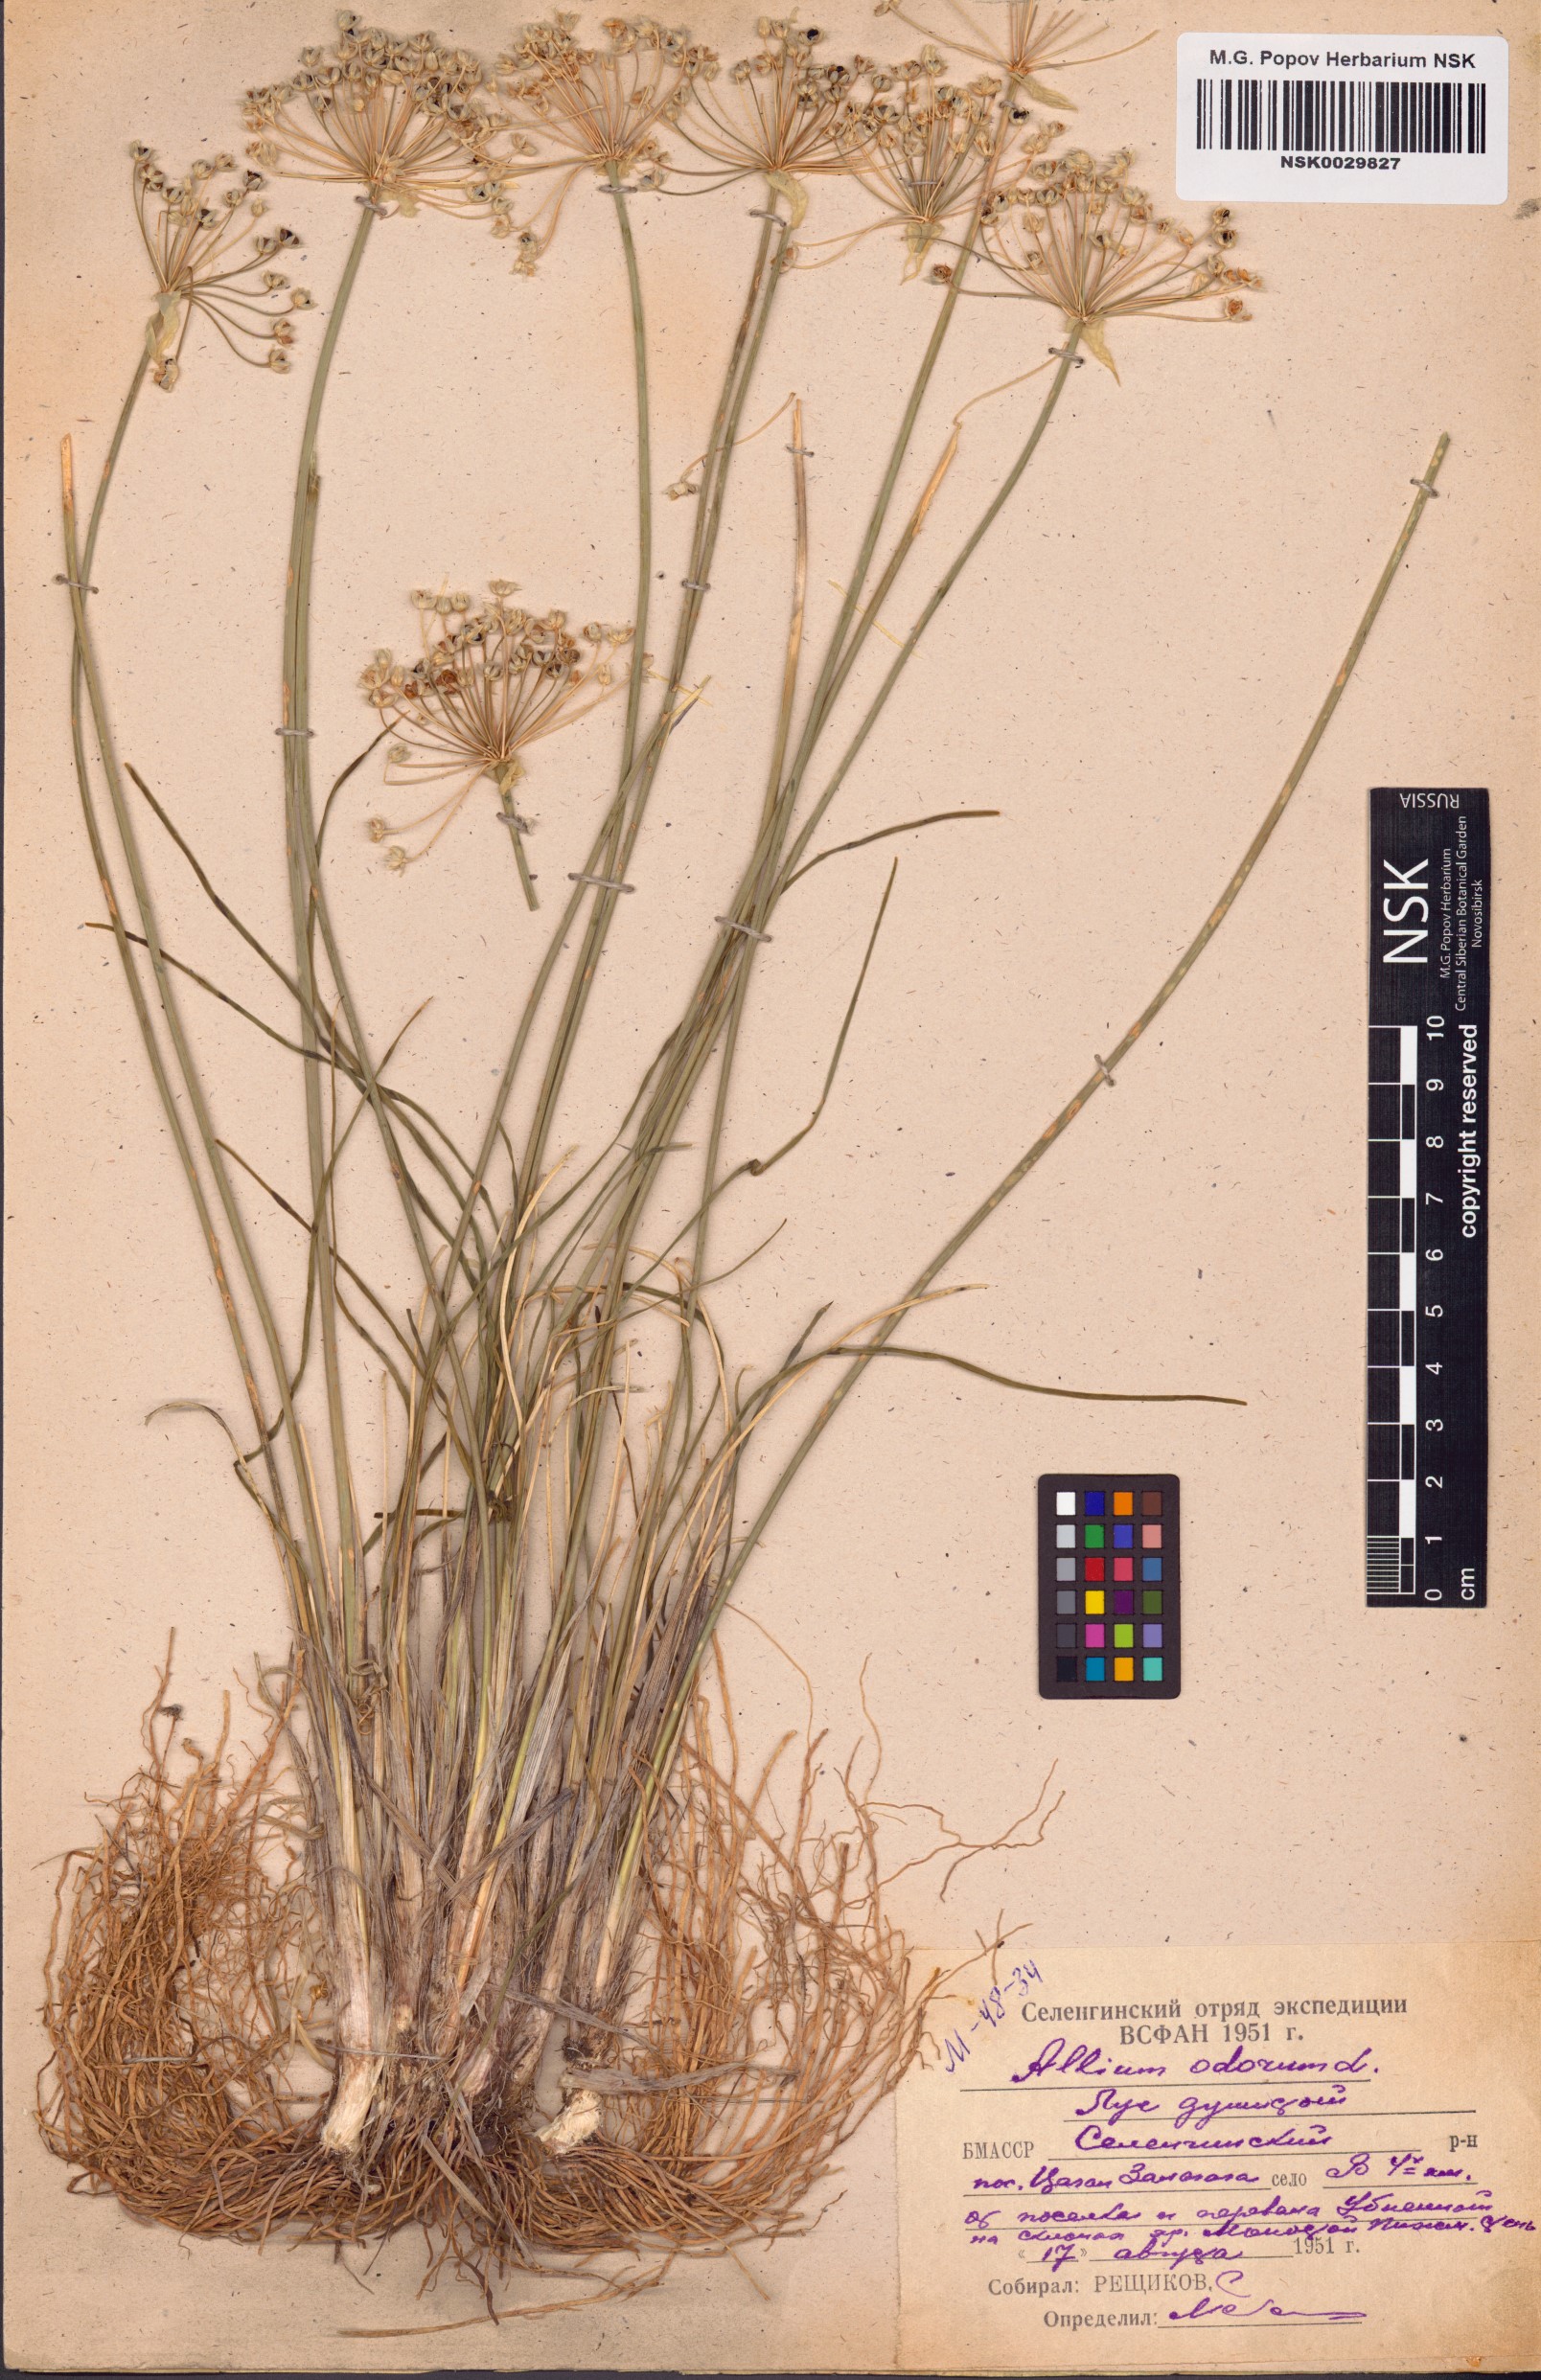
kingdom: Plantae
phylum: Tracheophyta
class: Liliopsida
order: Asparagales
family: Amaryllidaceae
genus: Allium
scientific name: Allium ramosum
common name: Fragrant garlic
